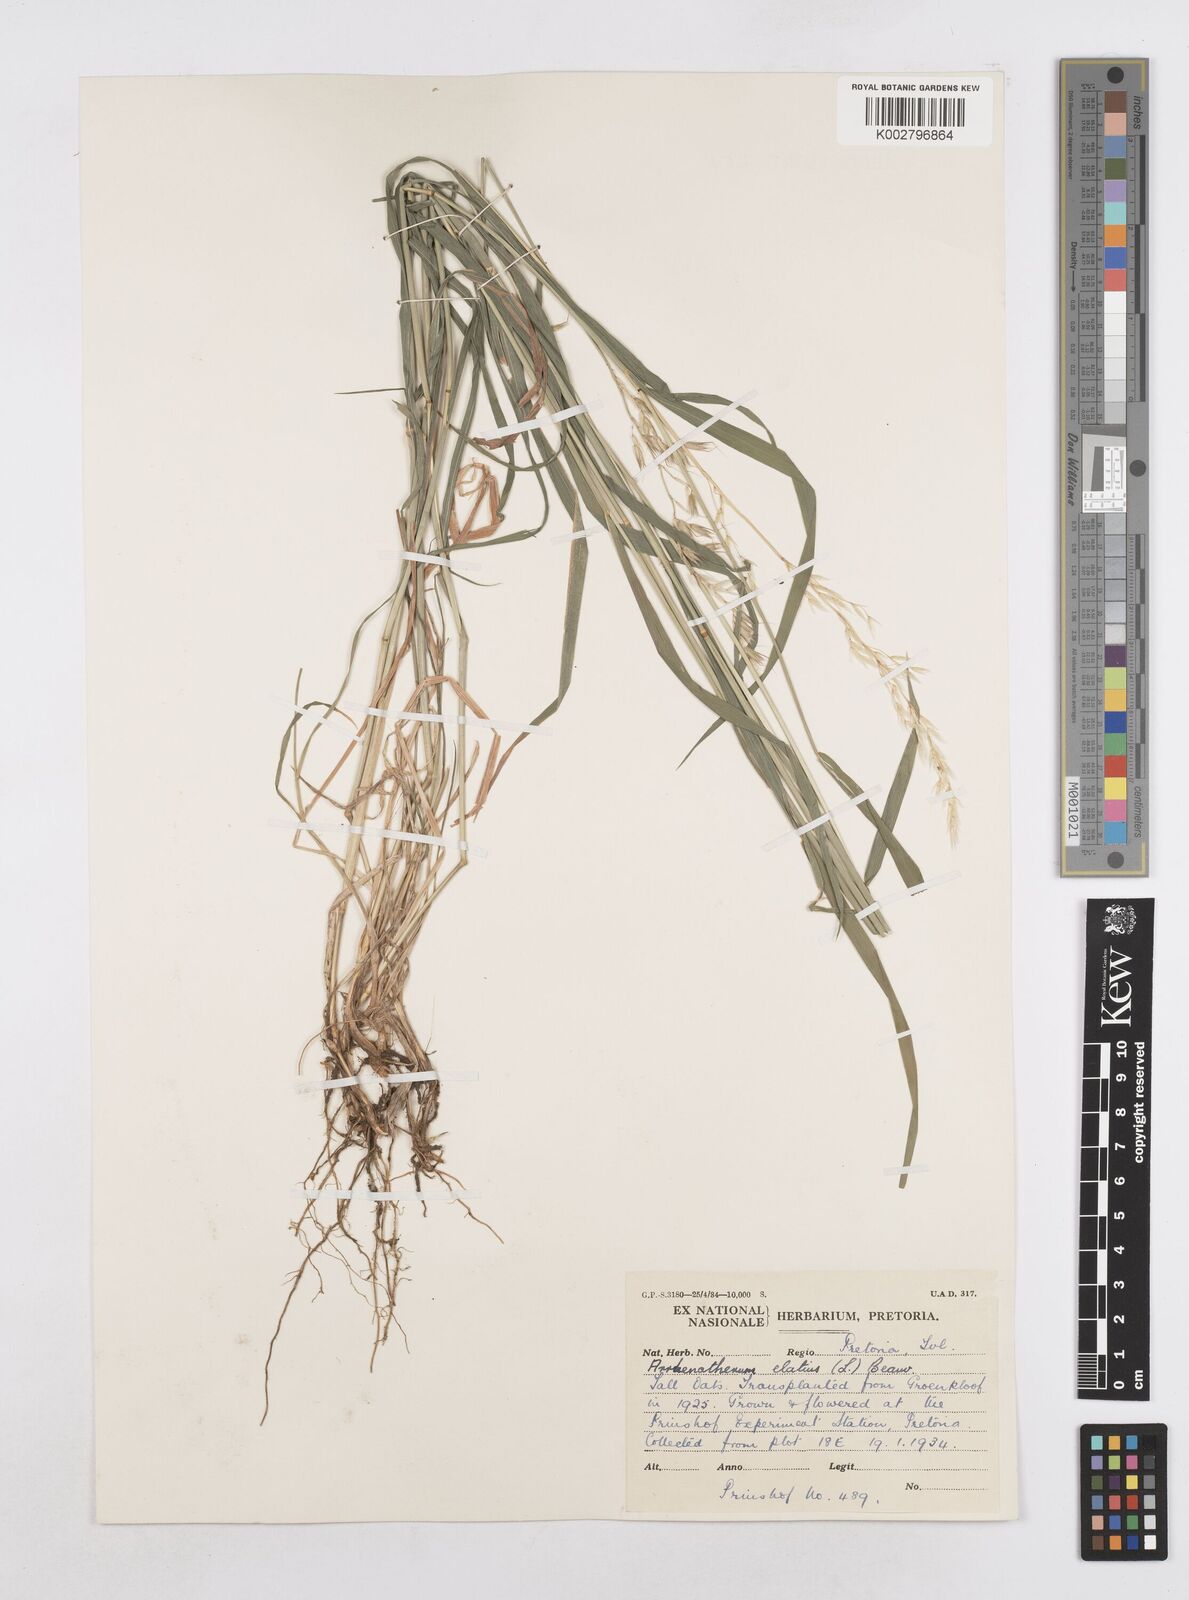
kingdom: Plantae
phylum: Tracheophyta
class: Liliopsida
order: Poales
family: Poaceae
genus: Arrhenatherum
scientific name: Arrhenatherum elatius
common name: Tall oatgrass
